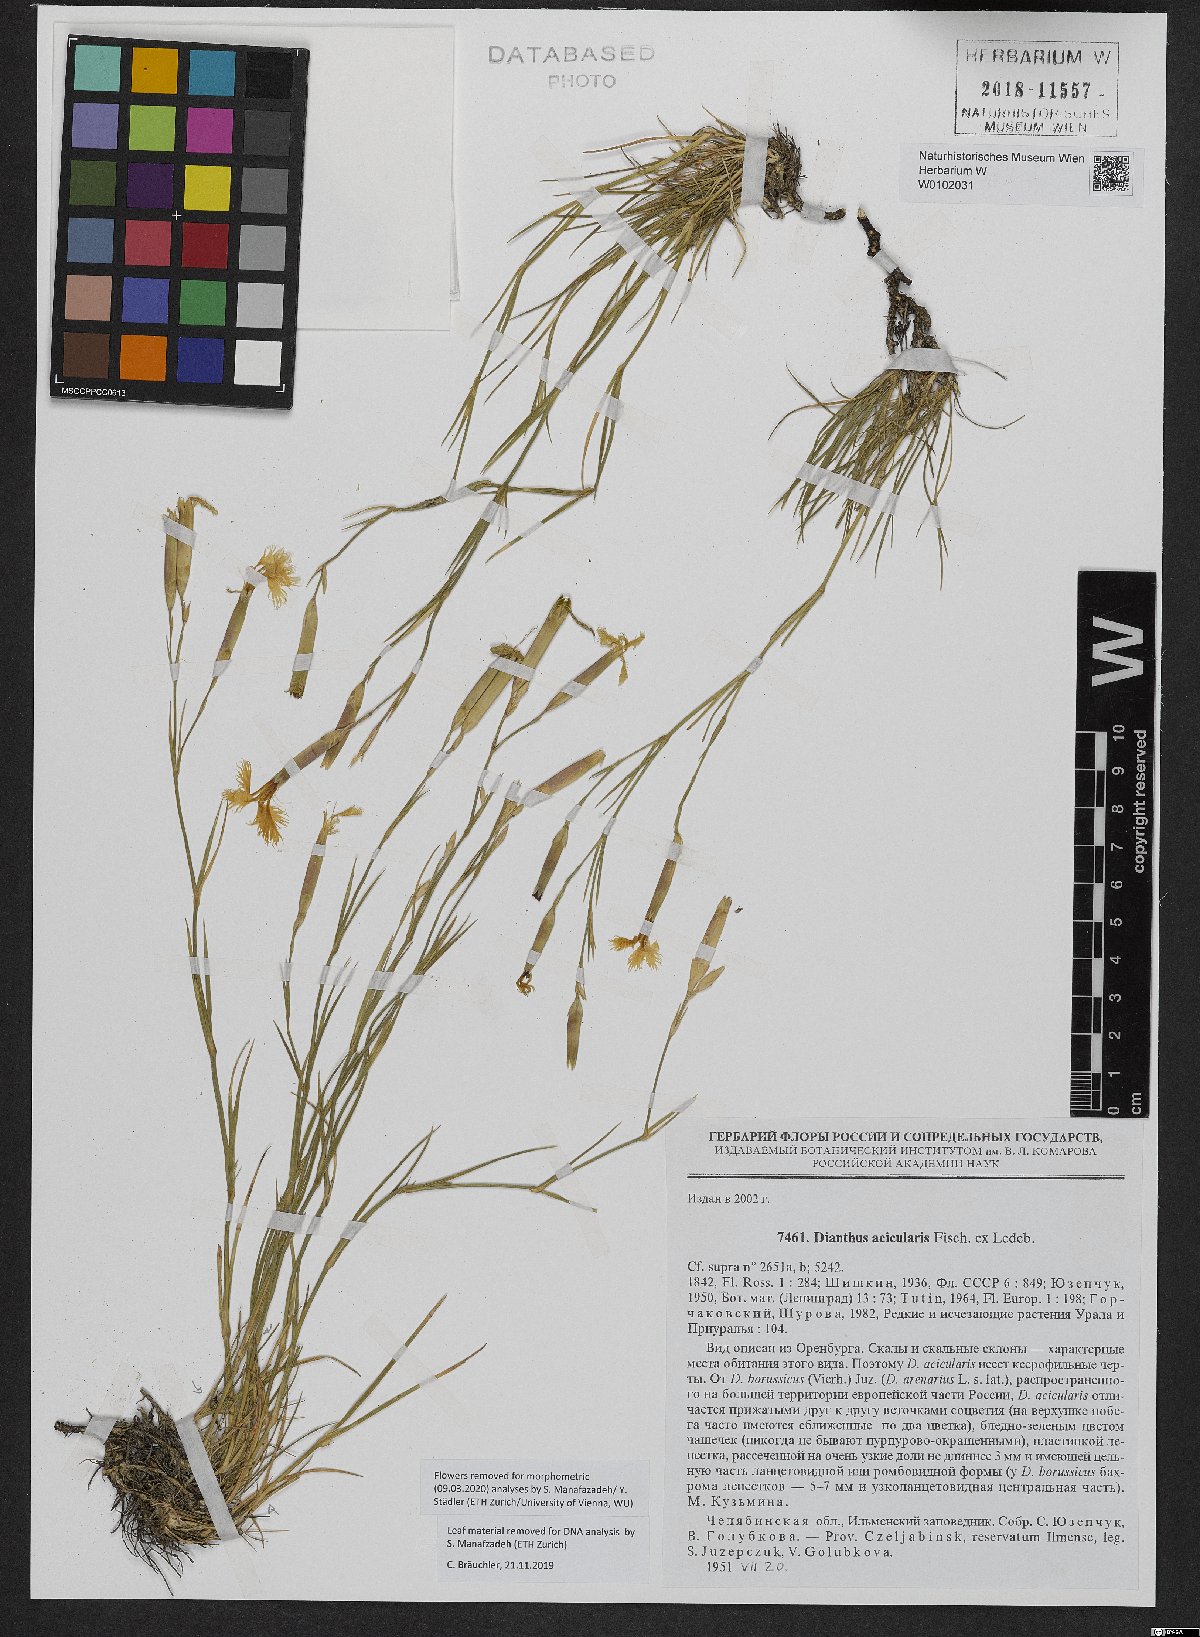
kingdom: Plantae
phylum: Tracheophyta
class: Magnoliopsida
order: Caryophyllales
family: Caryophyllaceae
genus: Dianthus
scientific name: Dianthus acicularis
